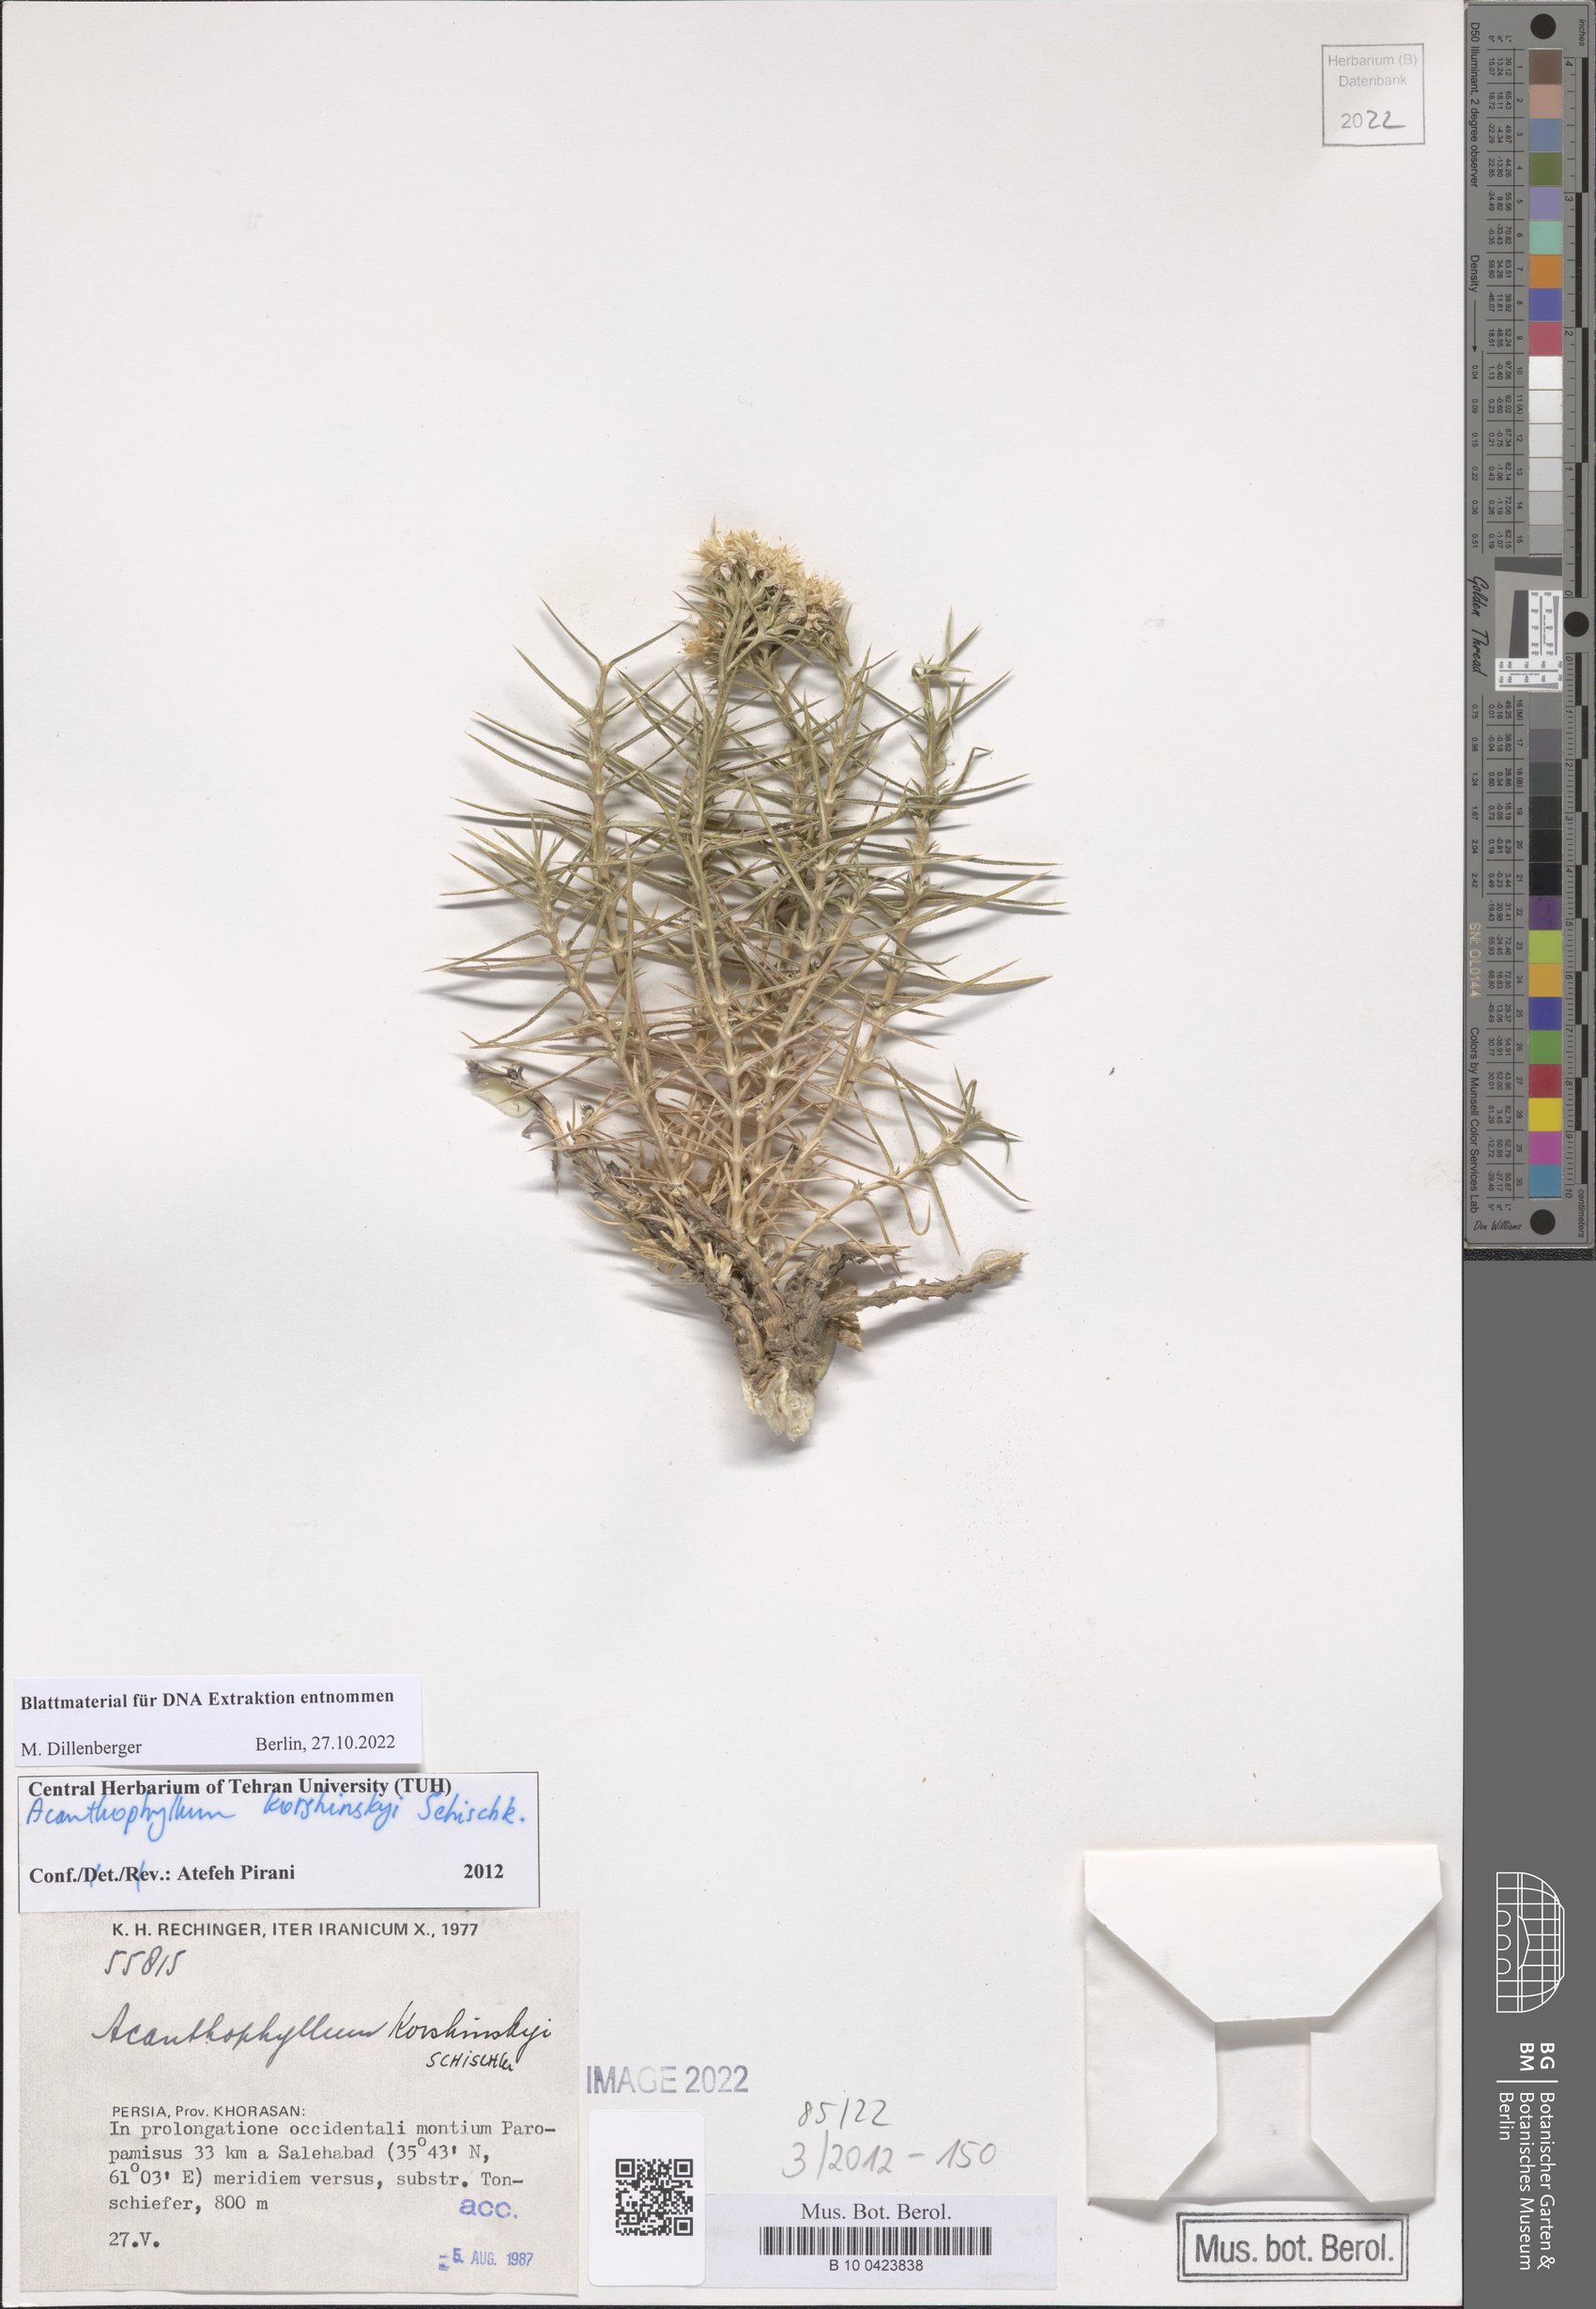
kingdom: Plantae
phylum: Tracheophyta
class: Magnoliopsida
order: Caryophyllales
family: Caryophyllaceae
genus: Acanthophyllum
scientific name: Acanthophyllum korshinskyi
